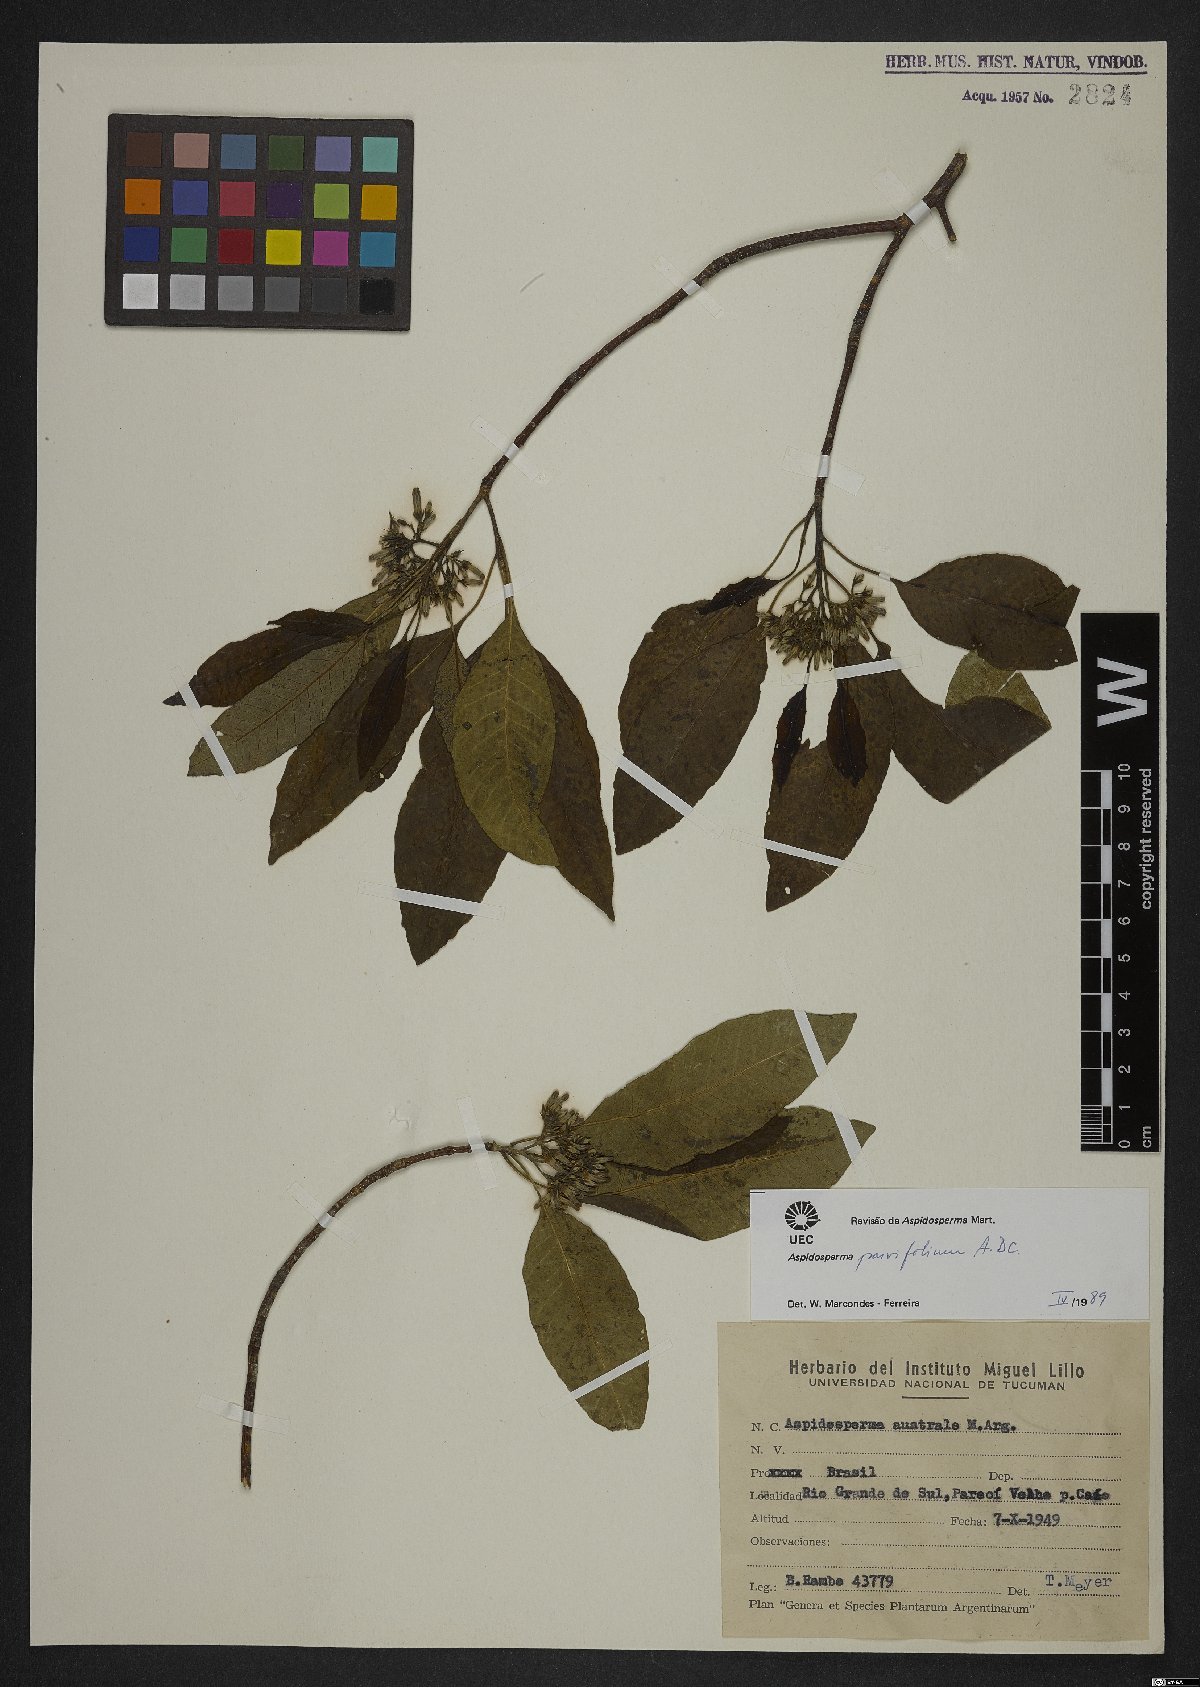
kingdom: Plantae
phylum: Tracheophyta
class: Magnoliopsida
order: Gentianales
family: Apocynaceae
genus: Aspidosperma
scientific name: Aspidosperma parvifolium
